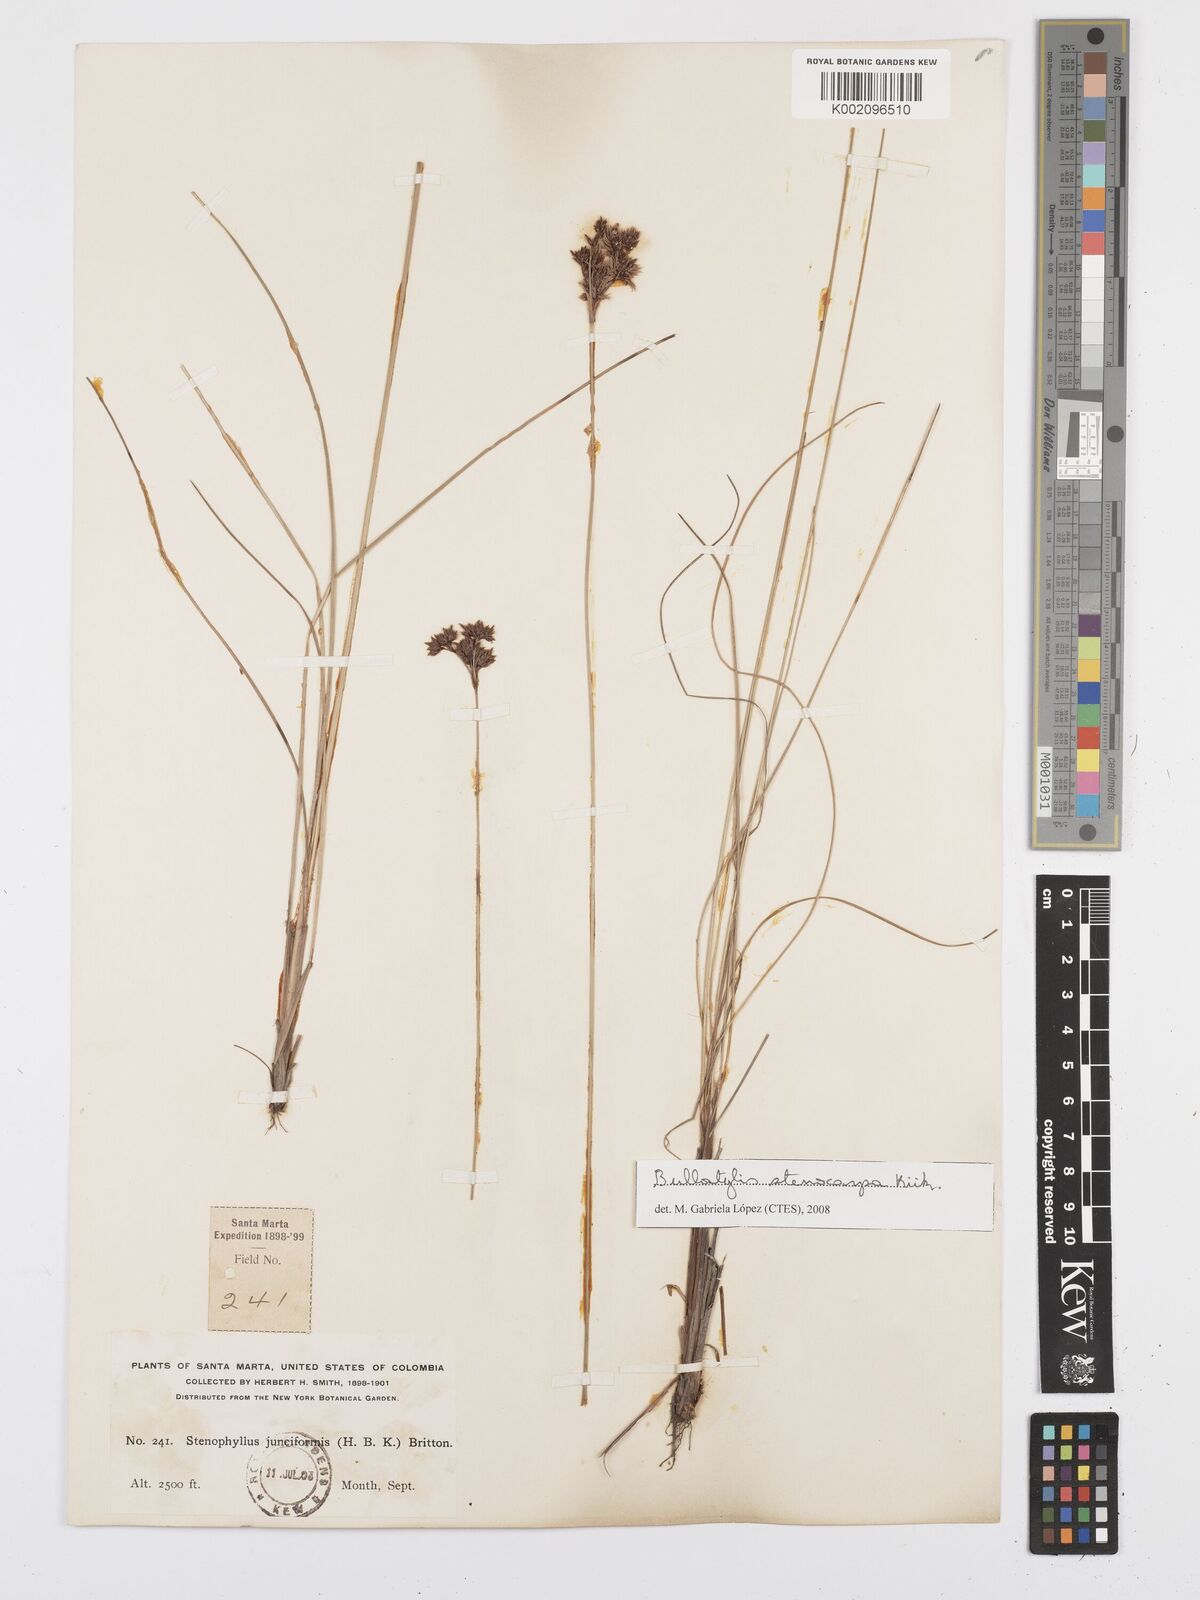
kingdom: Plantae
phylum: Tracheophyta
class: Liliopsida
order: Poales
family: Cyperaceae
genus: Bulbostylis
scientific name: Bulbostylis stenocarpa
